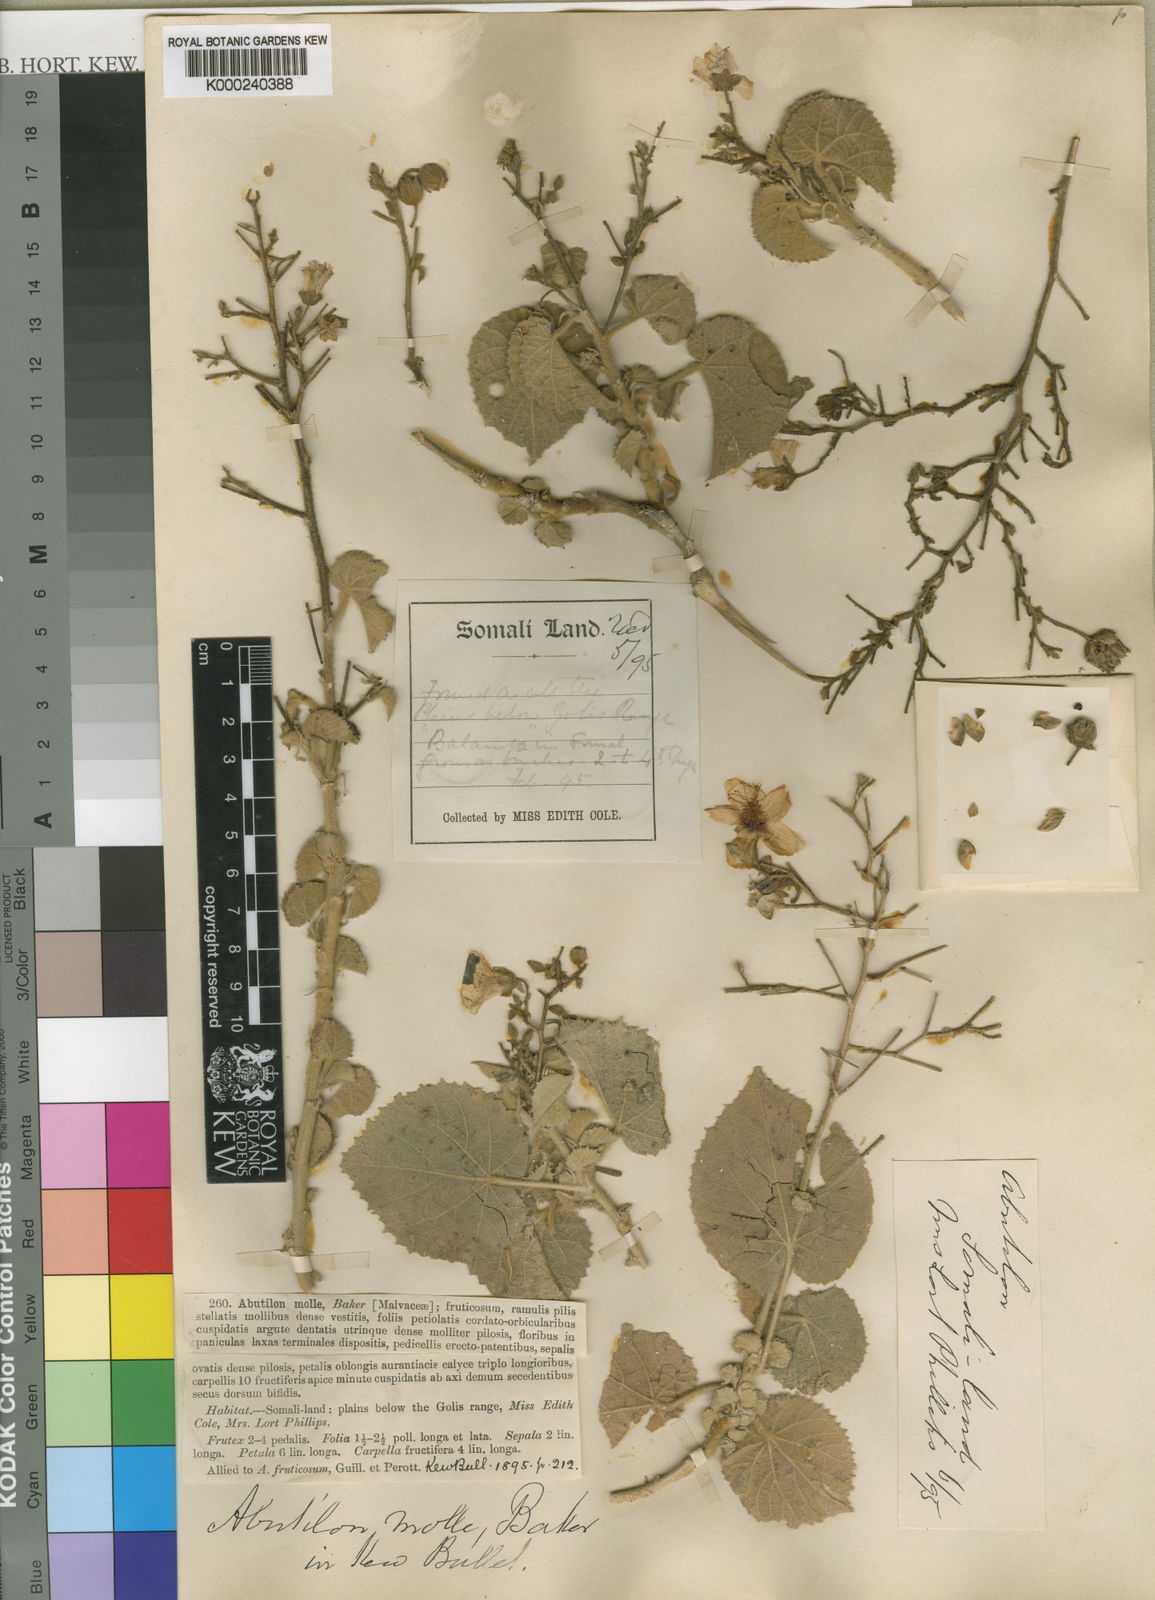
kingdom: Plantae
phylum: Tracheophyta
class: Magnoliopsida
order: Malvales
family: Malvaceae
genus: Abutilon
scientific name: Abutilon anglosomaliae
